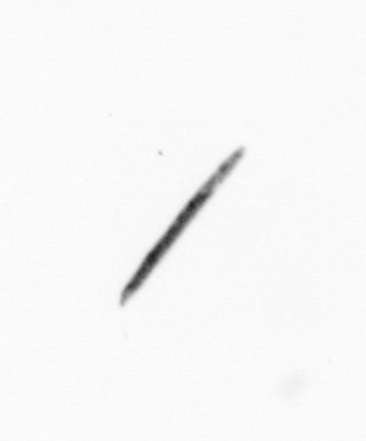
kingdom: Chromista
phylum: Ochrophyta
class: Bacillariophyceae
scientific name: Bacillariophyceae
